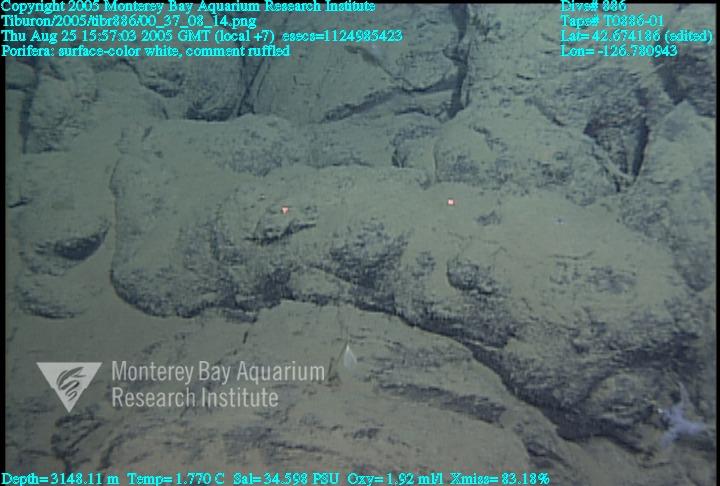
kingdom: Animalia
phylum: Porifera
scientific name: Porifera
